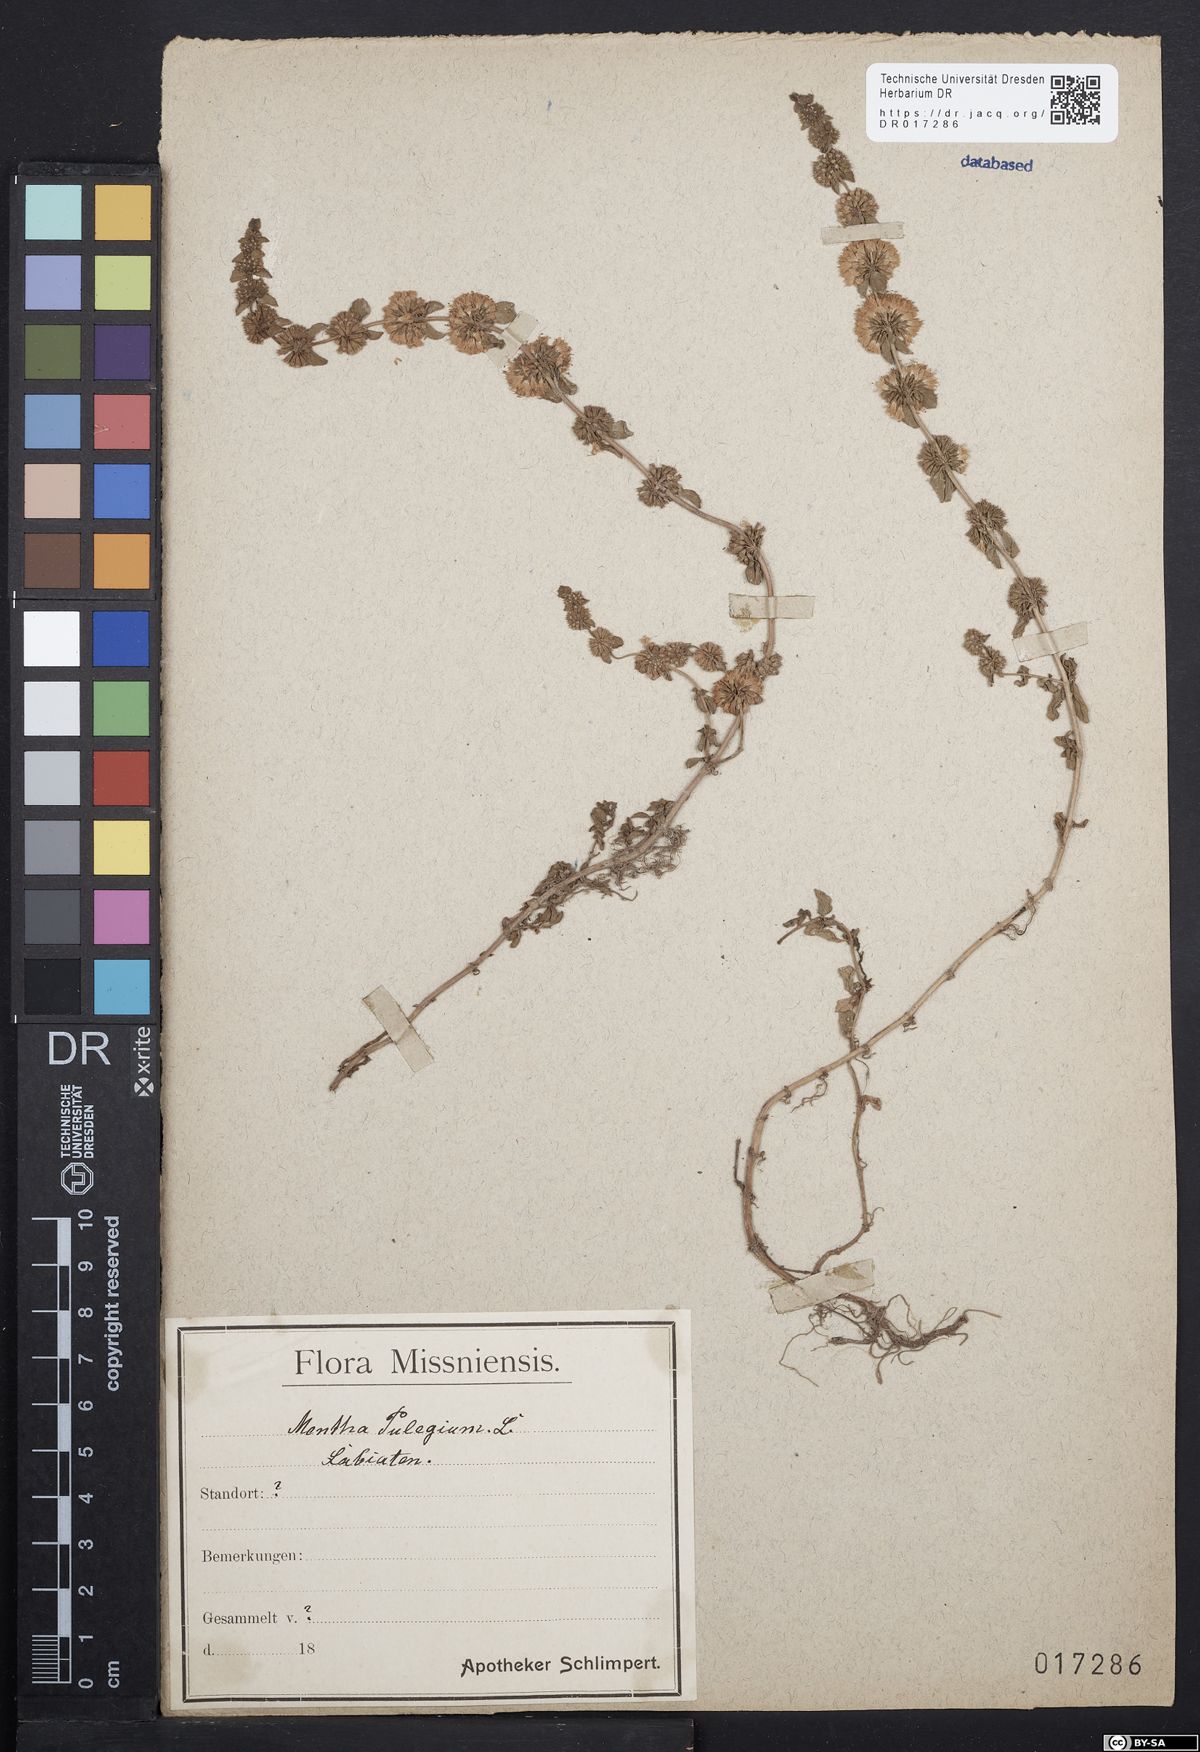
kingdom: Plantae
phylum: Tracheophyta
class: Magnoliopsida
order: Lamiales
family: Lamiaceae
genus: Mentha
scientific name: Mentha pulegium
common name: Pennyroyal
